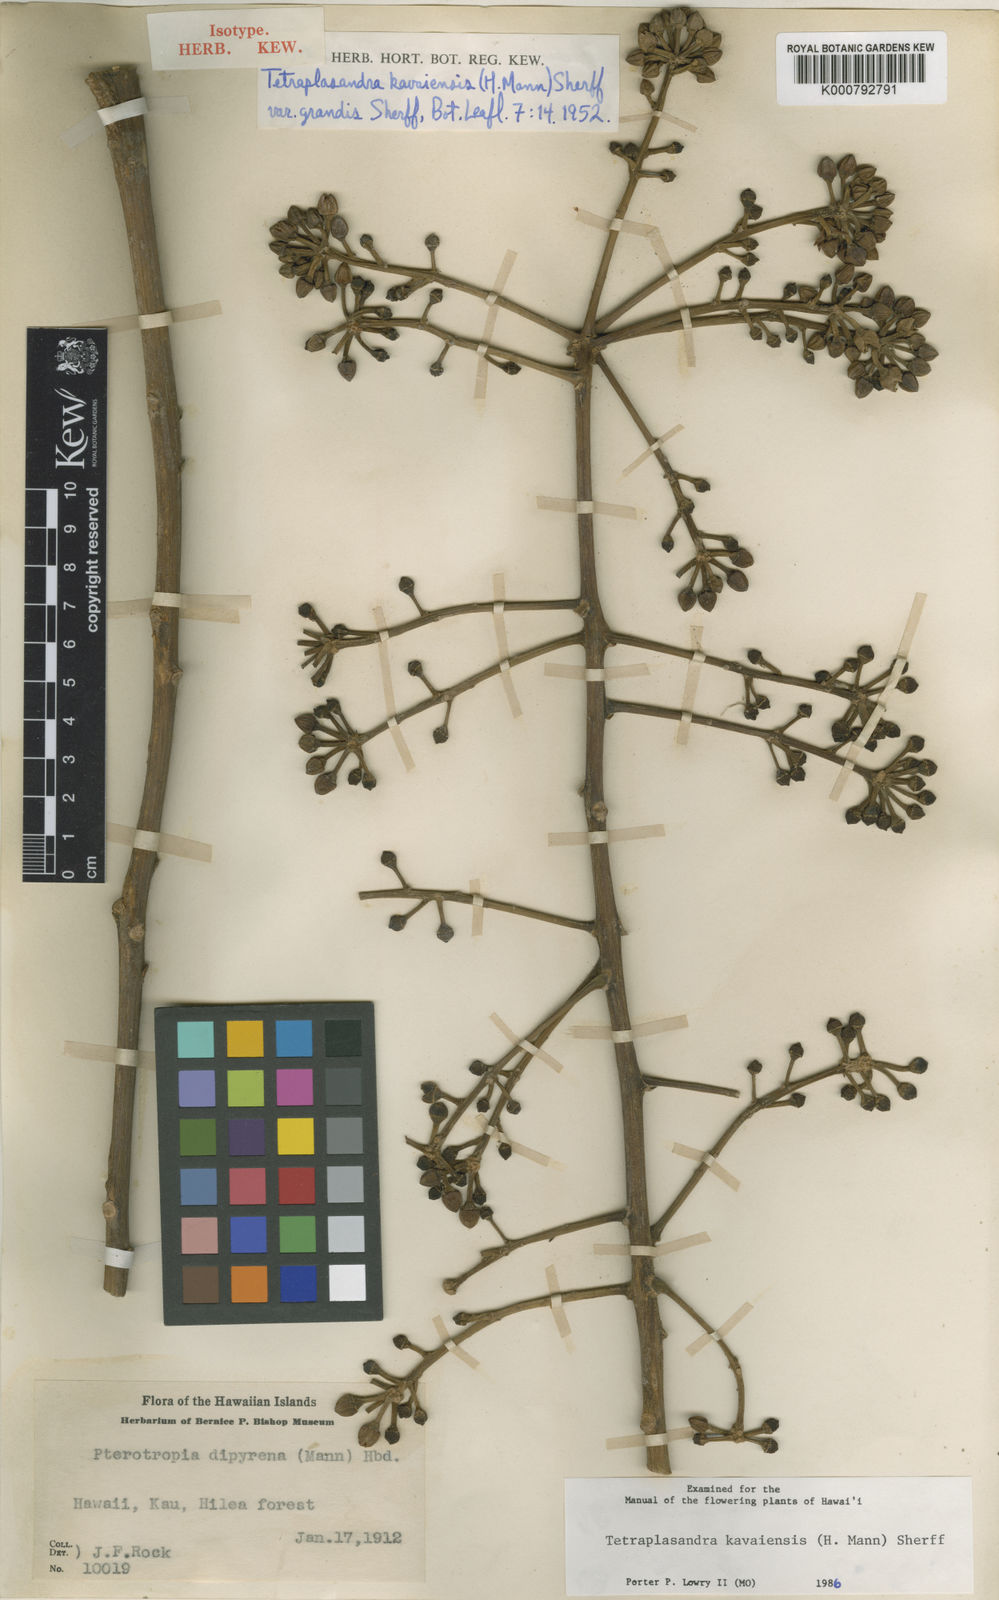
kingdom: Plantae
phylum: Tracheophyta
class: Magnoliopsida
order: Apiales
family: Araliaceae
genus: Polyscias
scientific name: Polyscias kavaiensis
